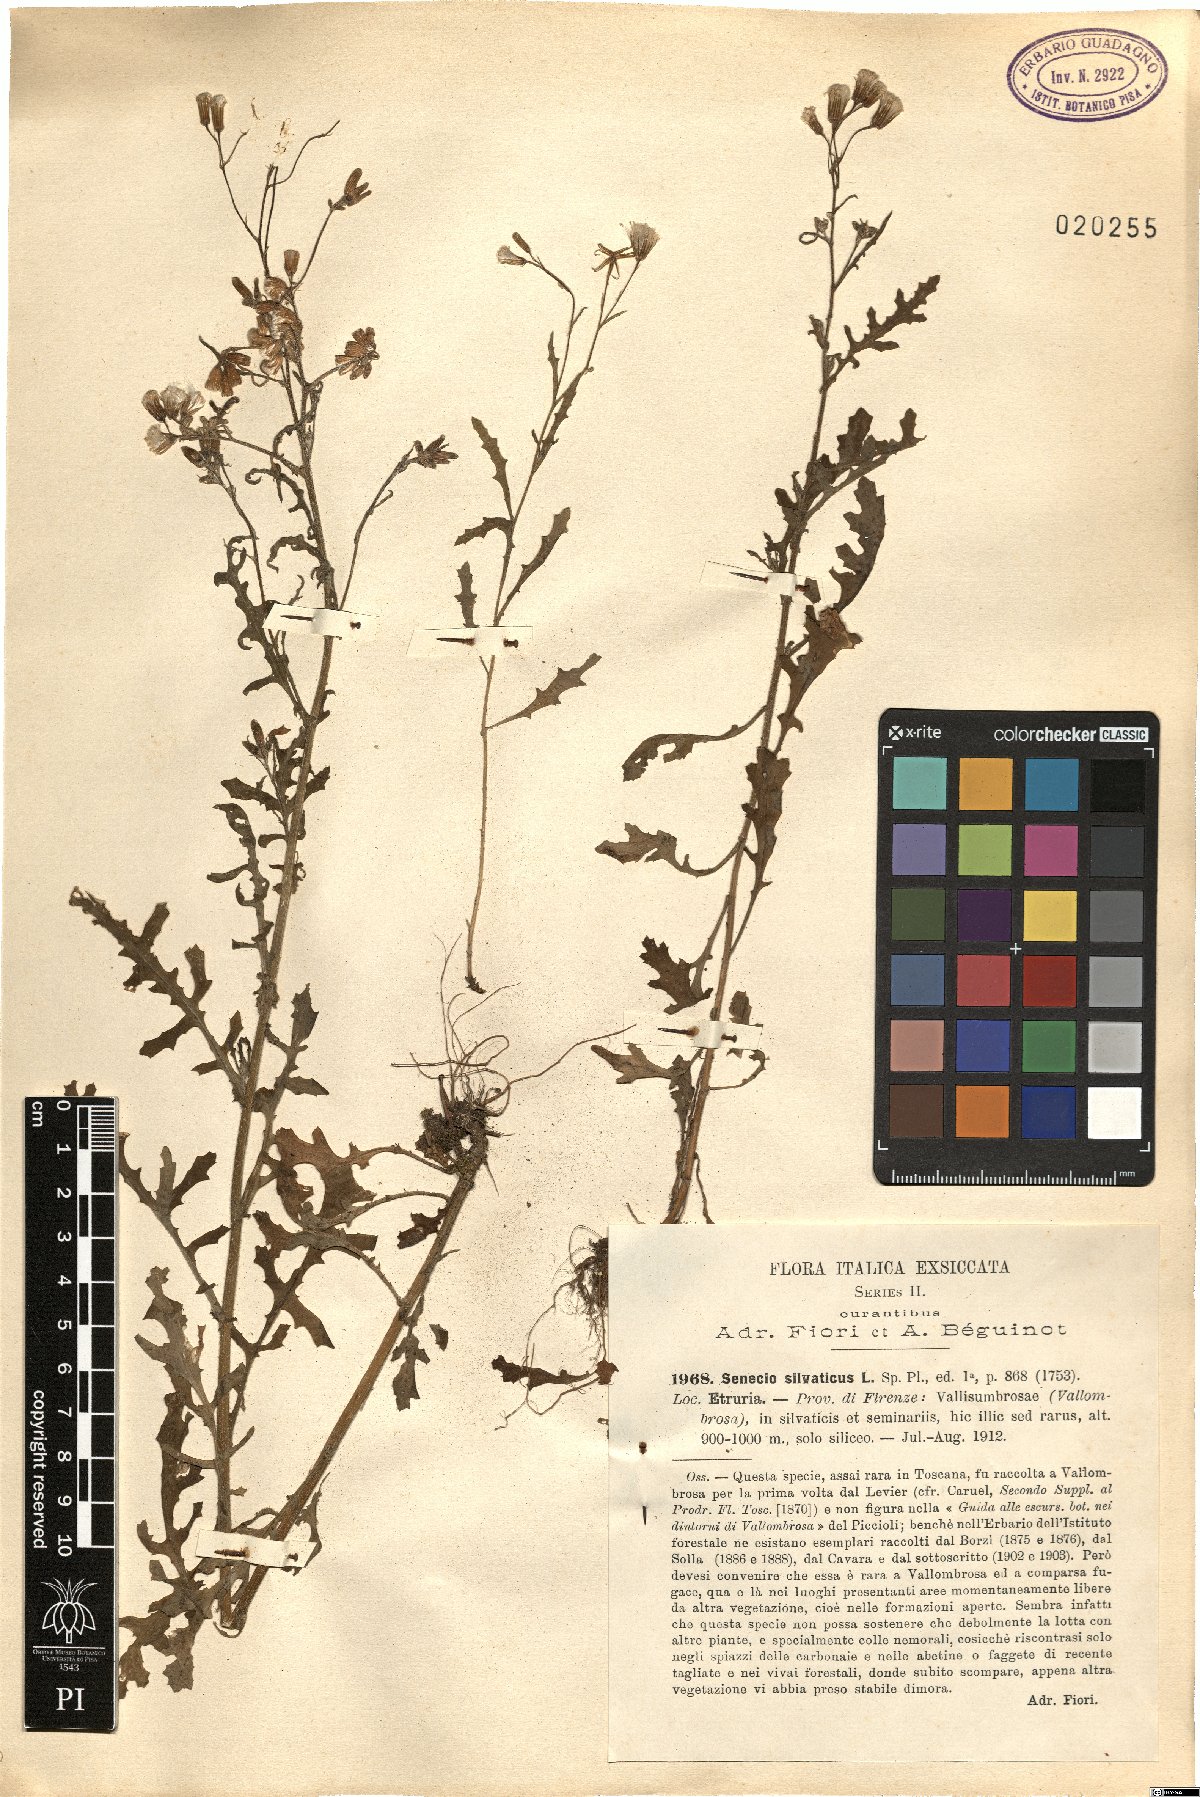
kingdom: Plantae
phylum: Tracheophyta
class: Magnoliopsida
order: Asterales
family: Asteraceae
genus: Senecio
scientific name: Senecio sylvaticus
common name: Woodland ragwort
